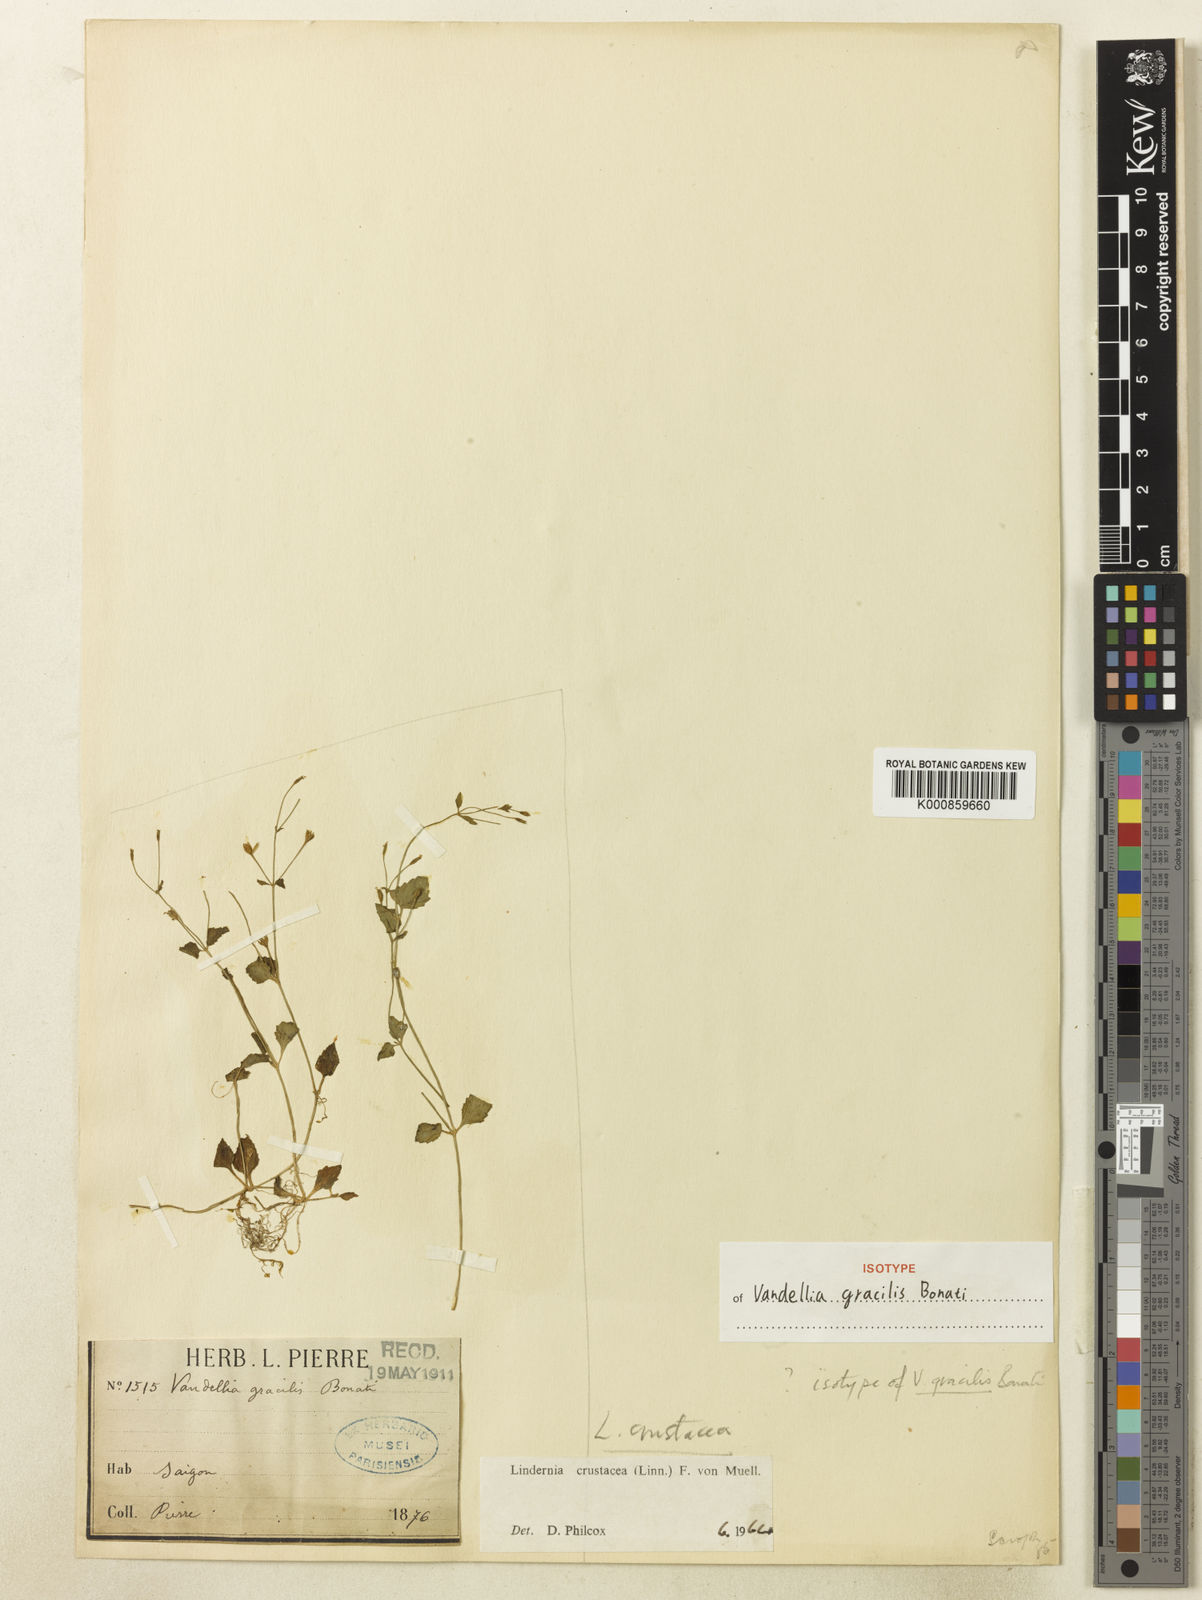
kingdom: Plantae
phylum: Tracheophyta
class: Magnoliopsida
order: Lamiales
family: Linderniaceae
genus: Torenia
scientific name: Torenia crustacea
